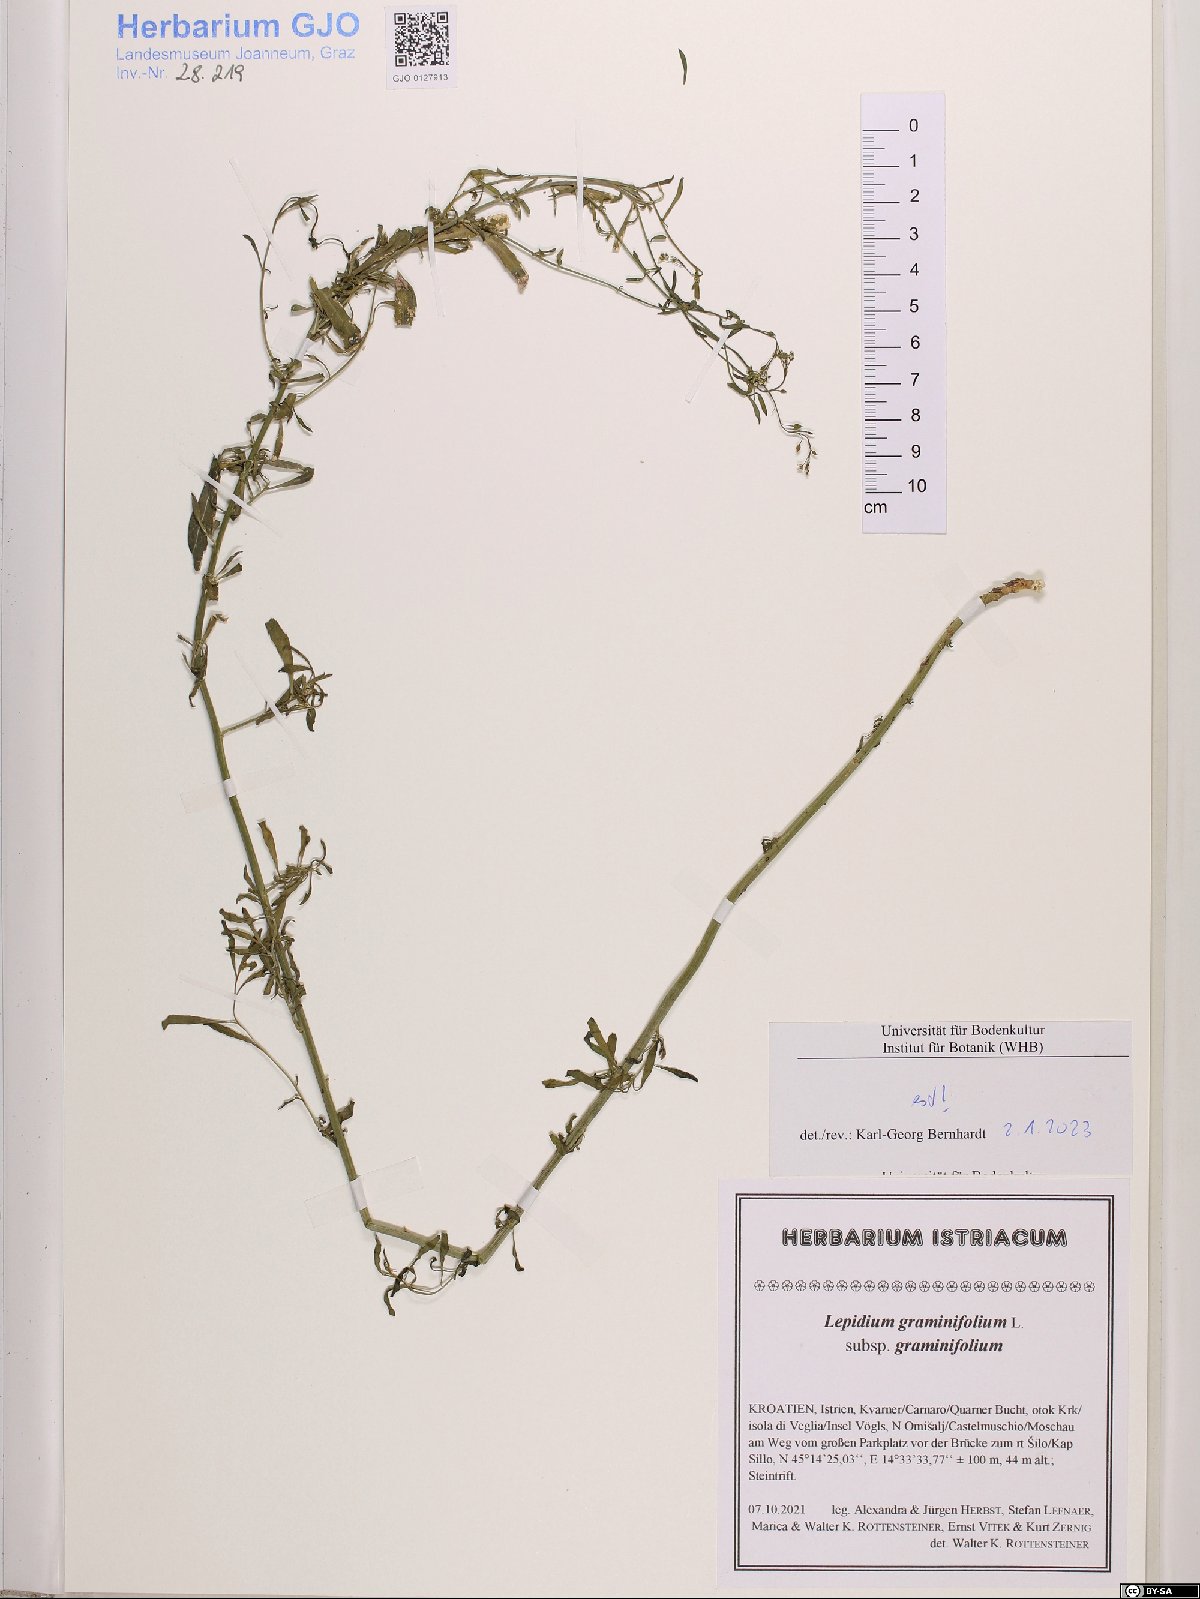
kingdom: Plantae
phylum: Tracheophyta
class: Magnoliopsida
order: Brassicales
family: Brassicaceae
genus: Lepidium
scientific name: Lepidium graminifolium
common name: Tall pepperwort
